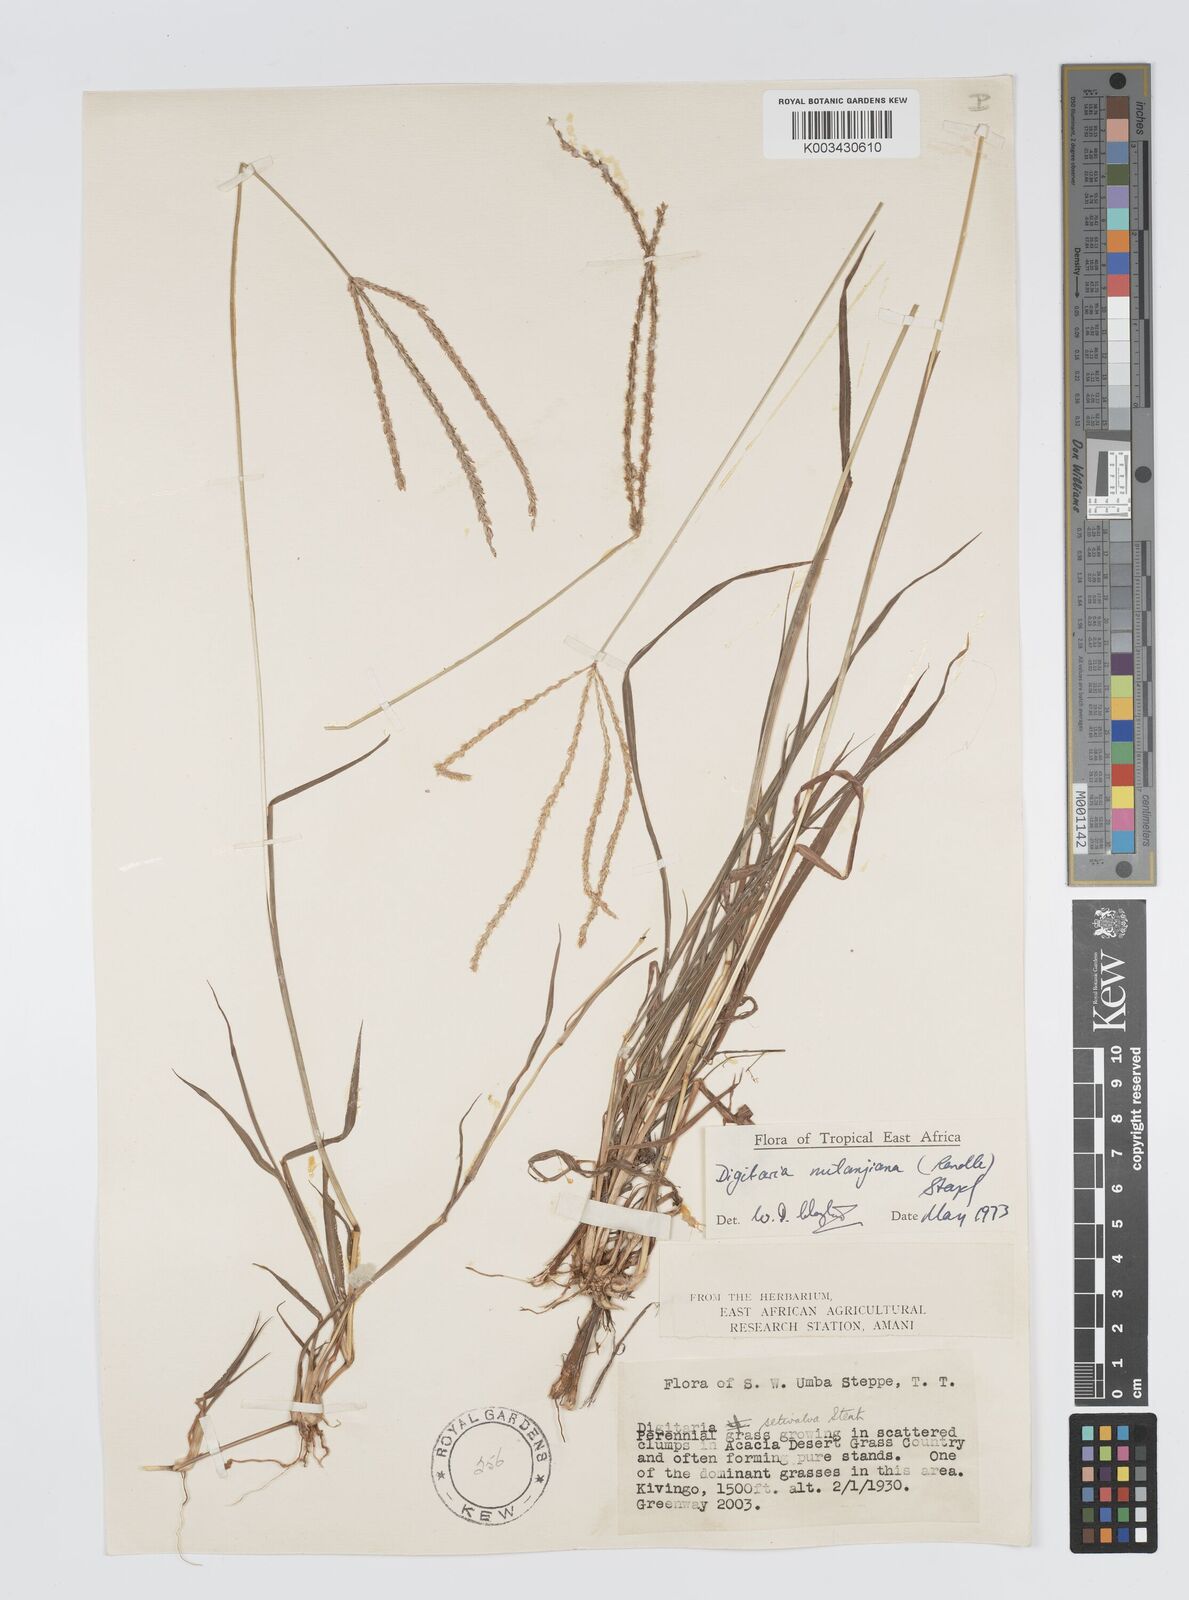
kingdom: Plantae
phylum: Tracheophyta
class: Liliopsida
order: Poales
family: Poaceae
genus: Digitaria
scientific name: Digitaria milanjiana
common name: Madagascar crabgrass
